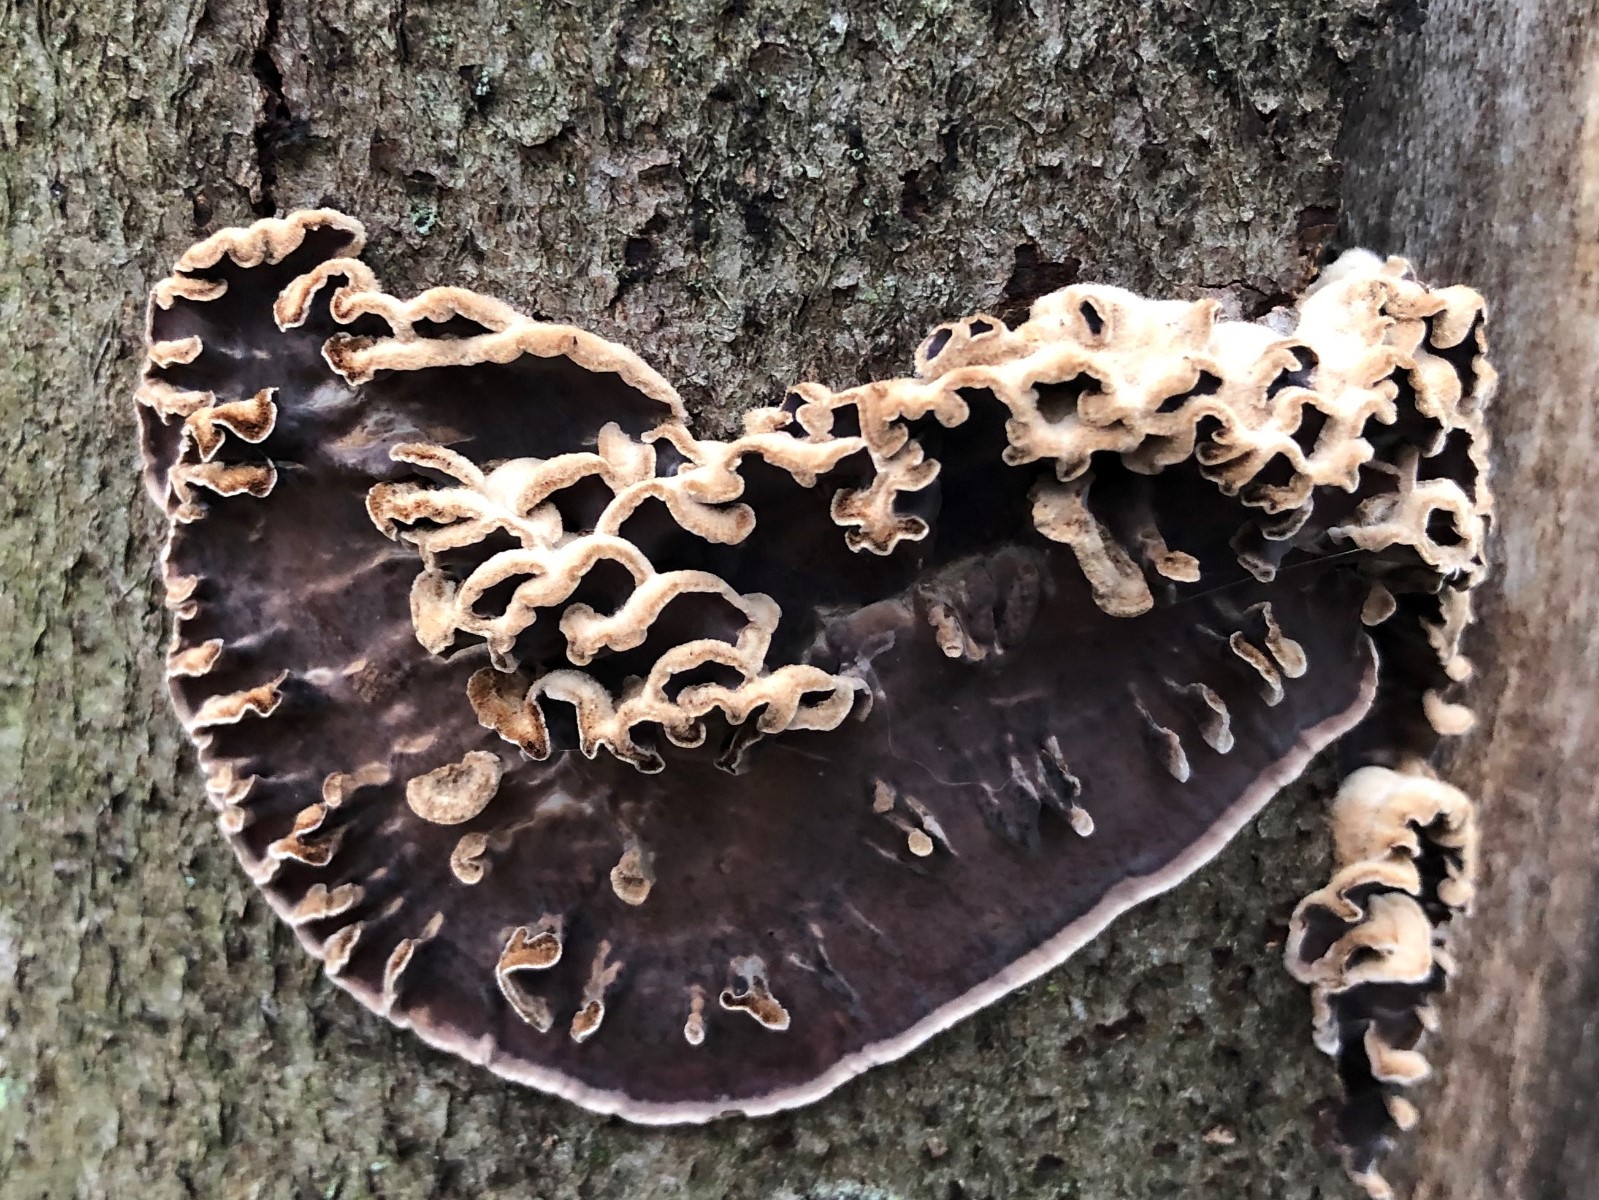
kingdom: Fungi
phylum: Basidiomycota
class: Agaricomycetes
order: Agaricales
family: Cyphellaceae
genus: Chondrostereum
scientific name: Chondrostereum purpureum
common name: purpurlædersvamp
